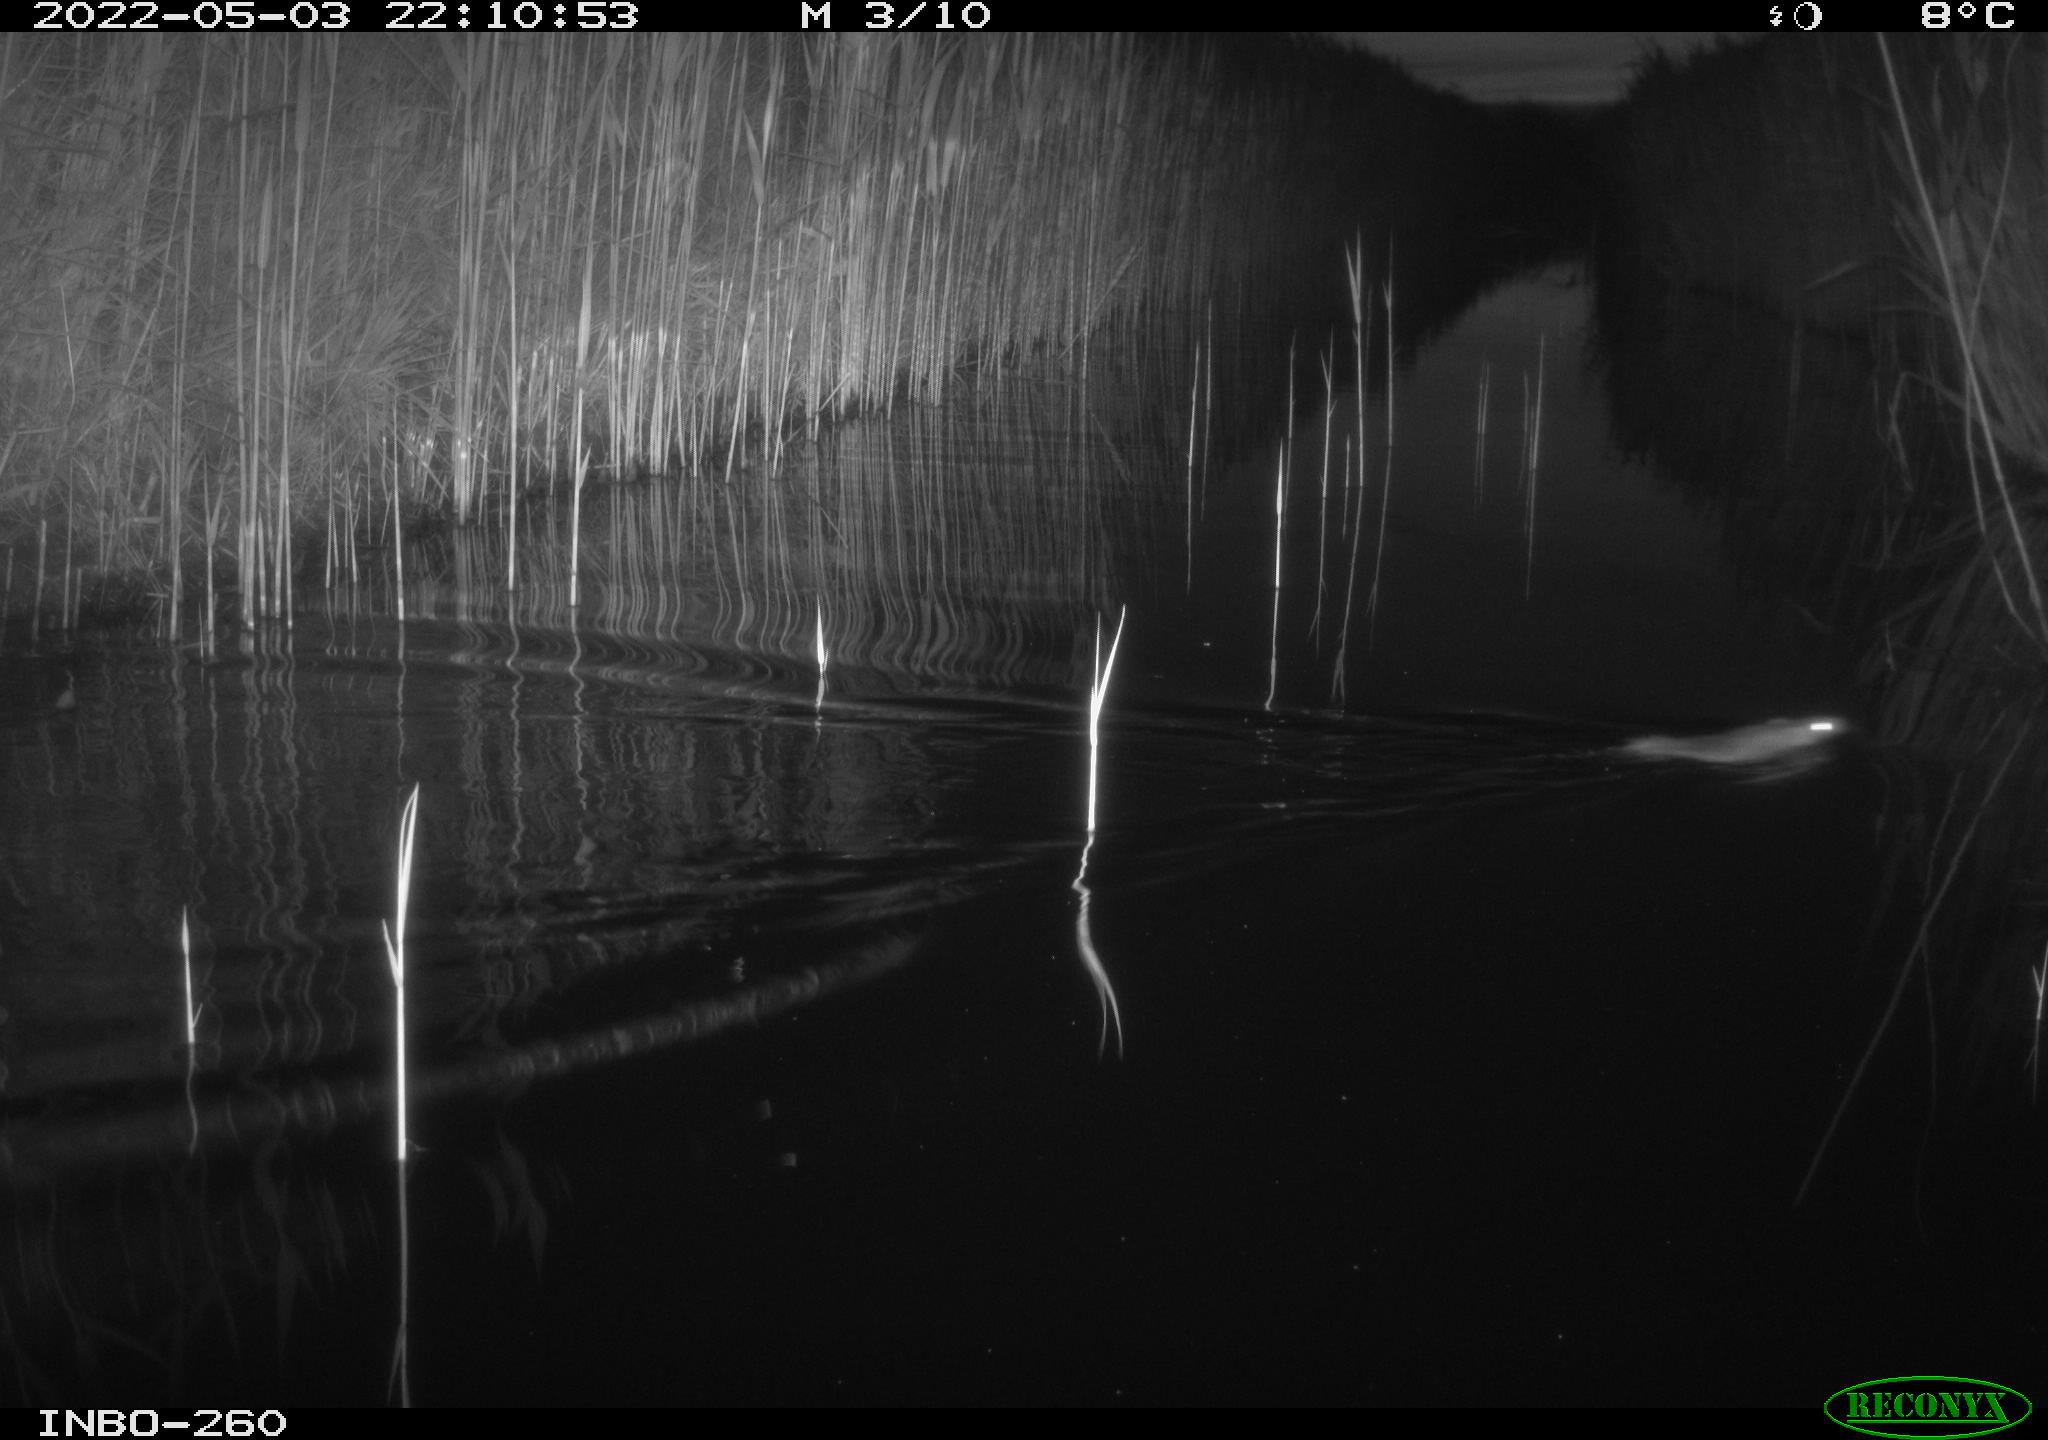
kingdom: Animalia
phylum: Chordata
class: Mammalia
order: Rodentia
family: Muridae
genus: Rattus
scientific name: Rattus norvegicus
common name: Brown rat
